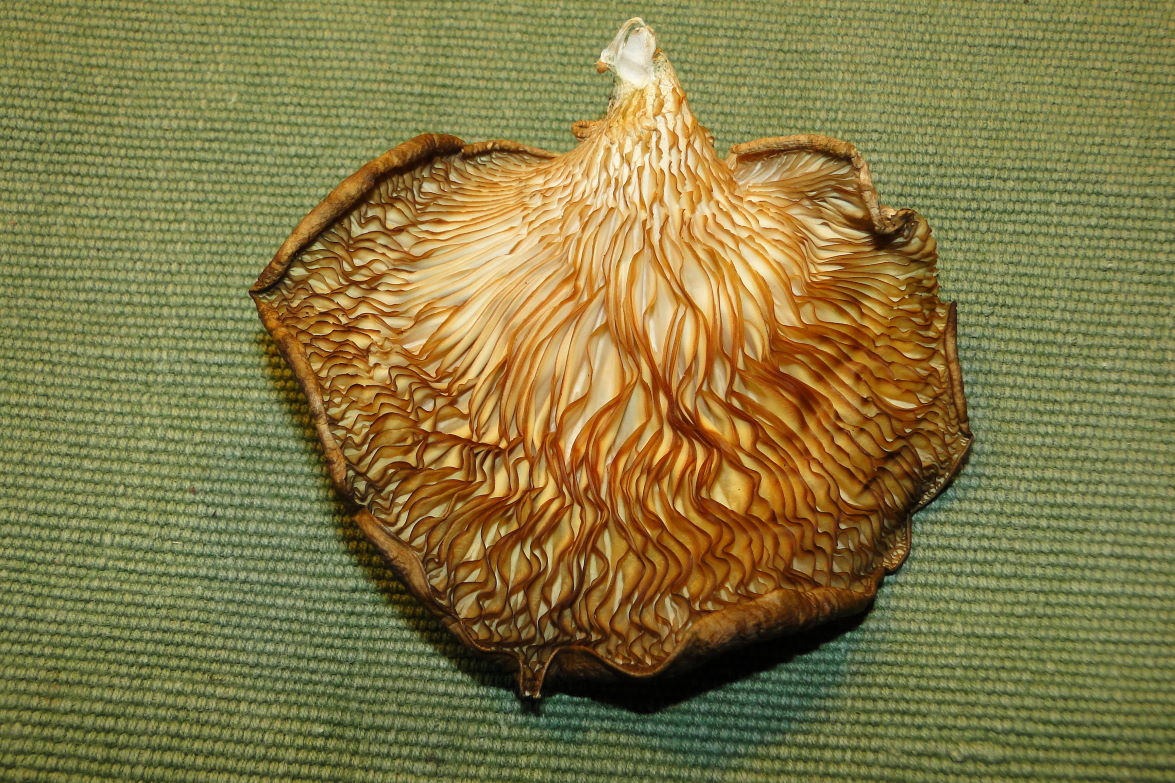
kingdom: Fungi
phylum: Basidiomycota
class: Agaricomycetes
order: Agaricales
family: Pleurotaceae
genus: Pleurotus
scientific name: Pleurotus ostreatus
